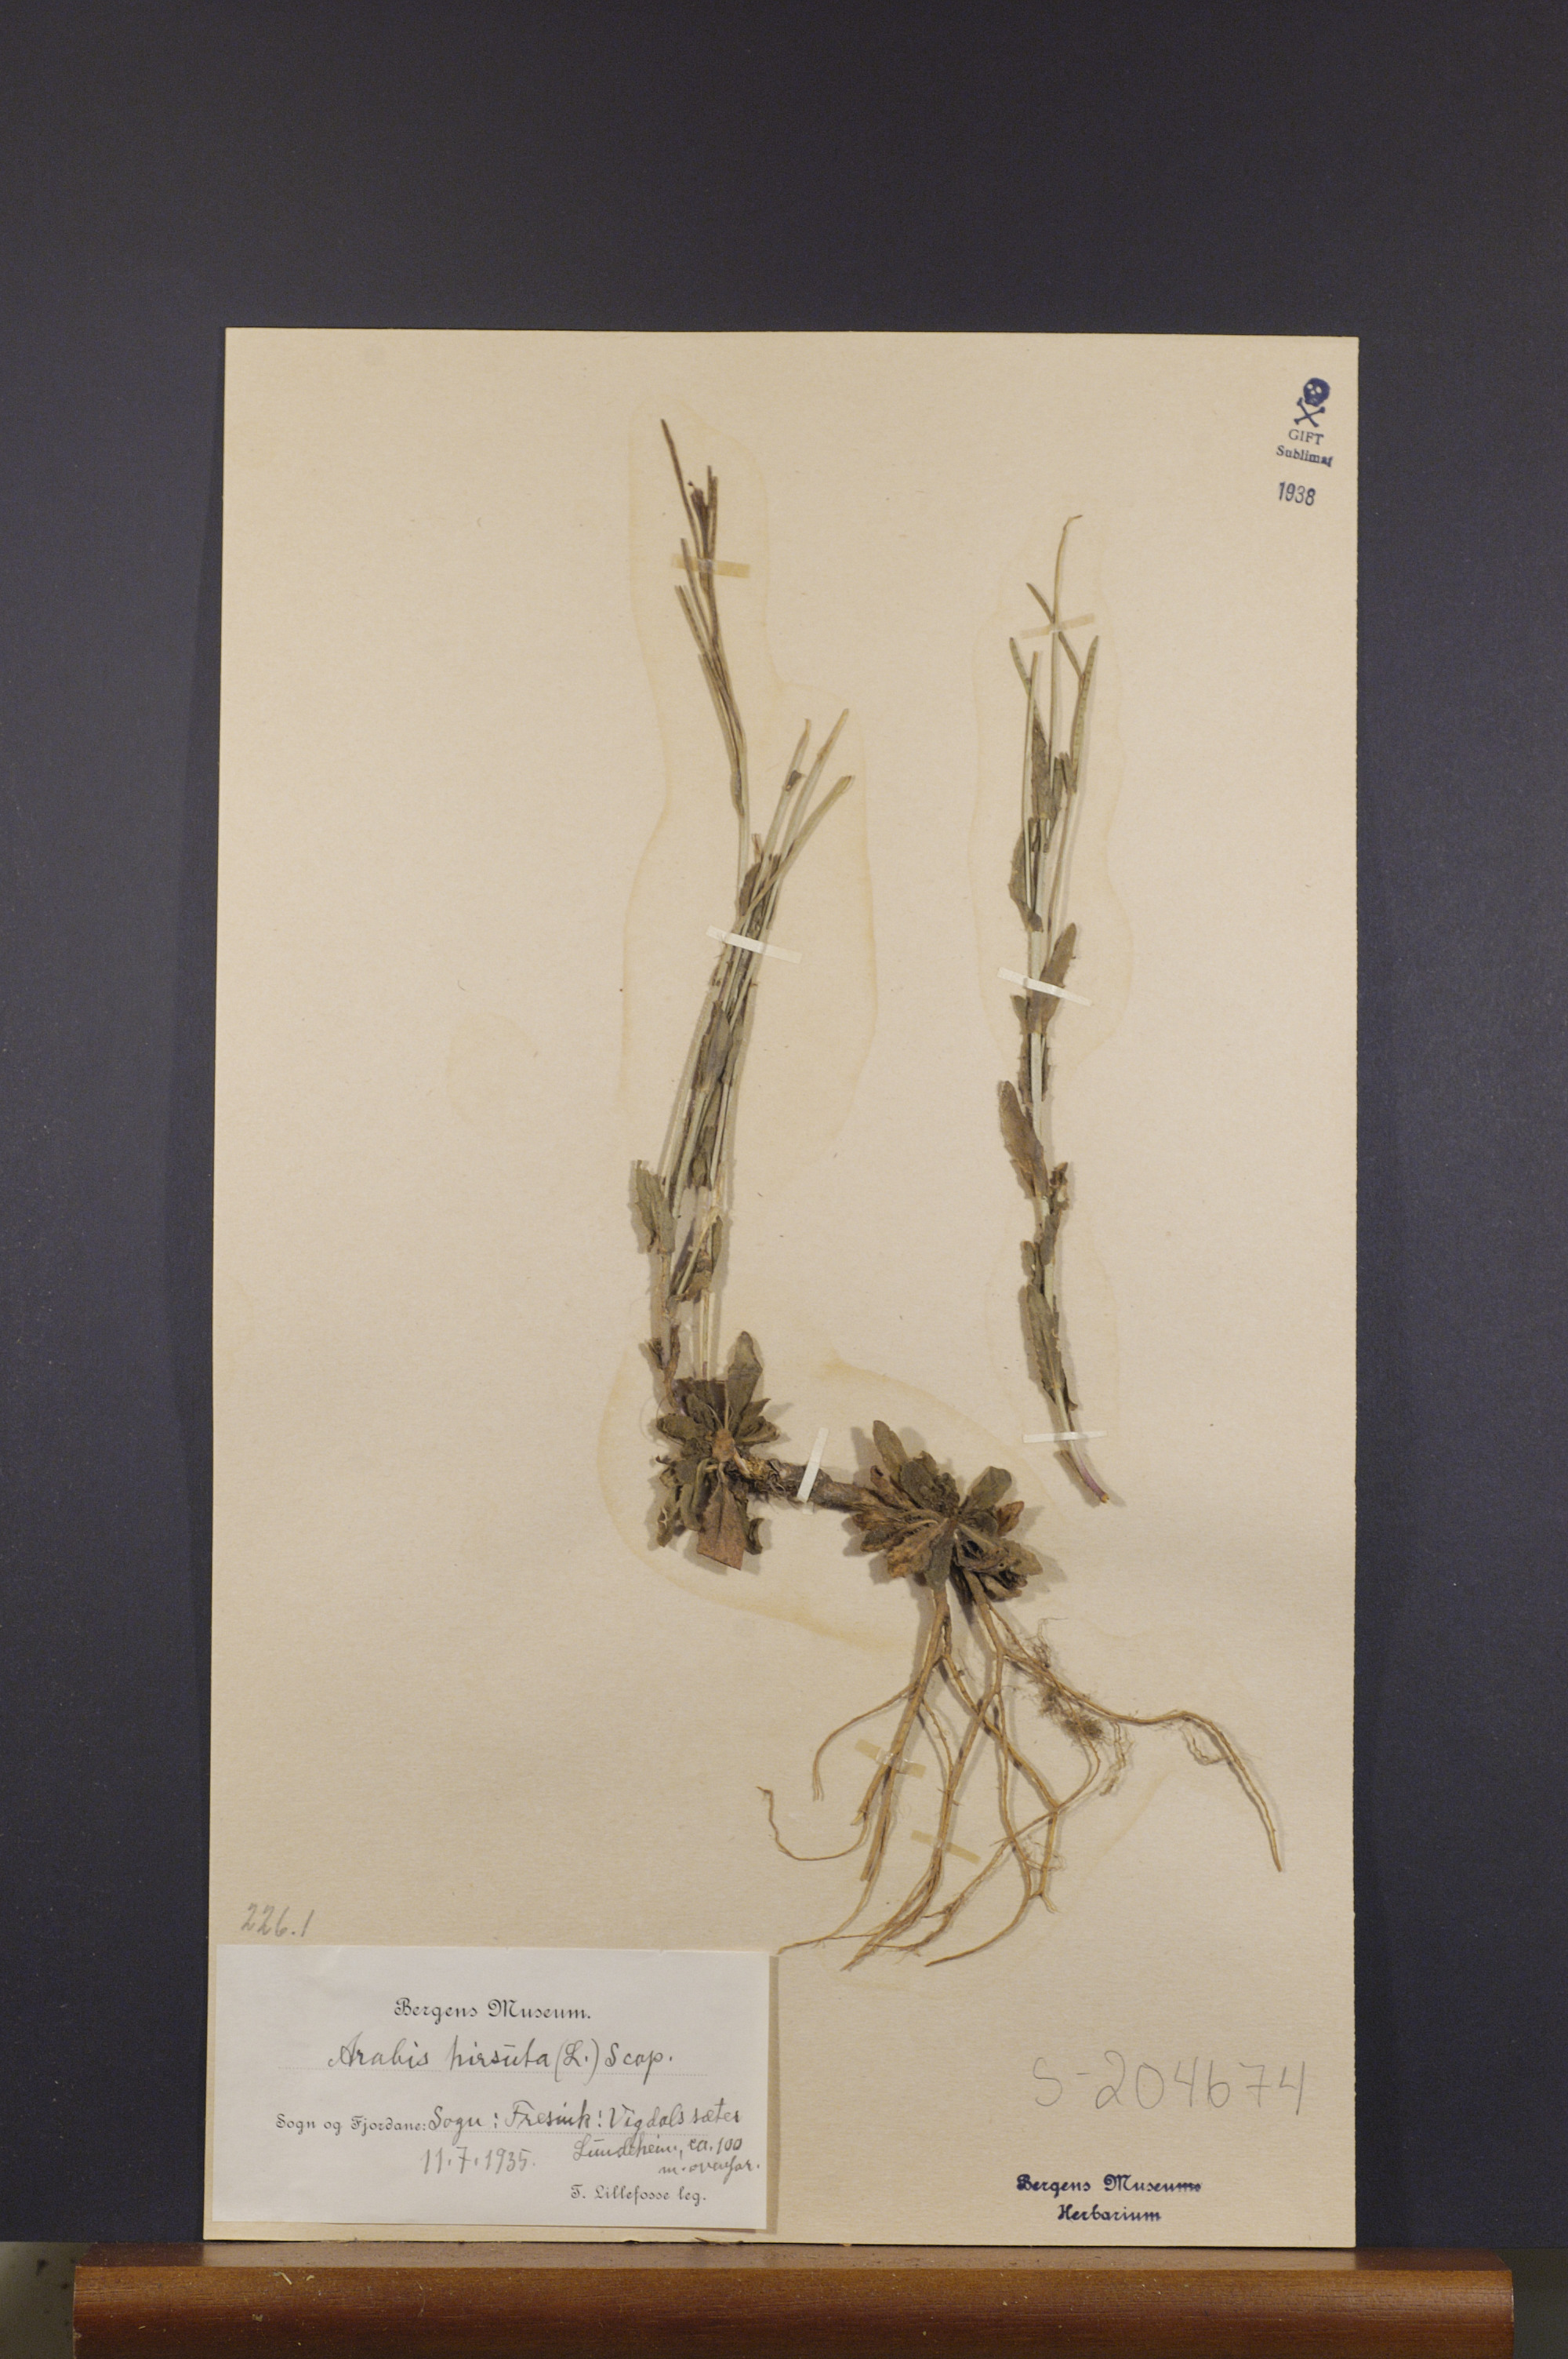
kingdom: Plantae
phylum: Tracheophyta
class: Magnoliopsida
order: Brassicales
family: Brassicaceae
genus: Arabis
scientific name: Arabis hirsuta
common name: Hairy rock-cress
